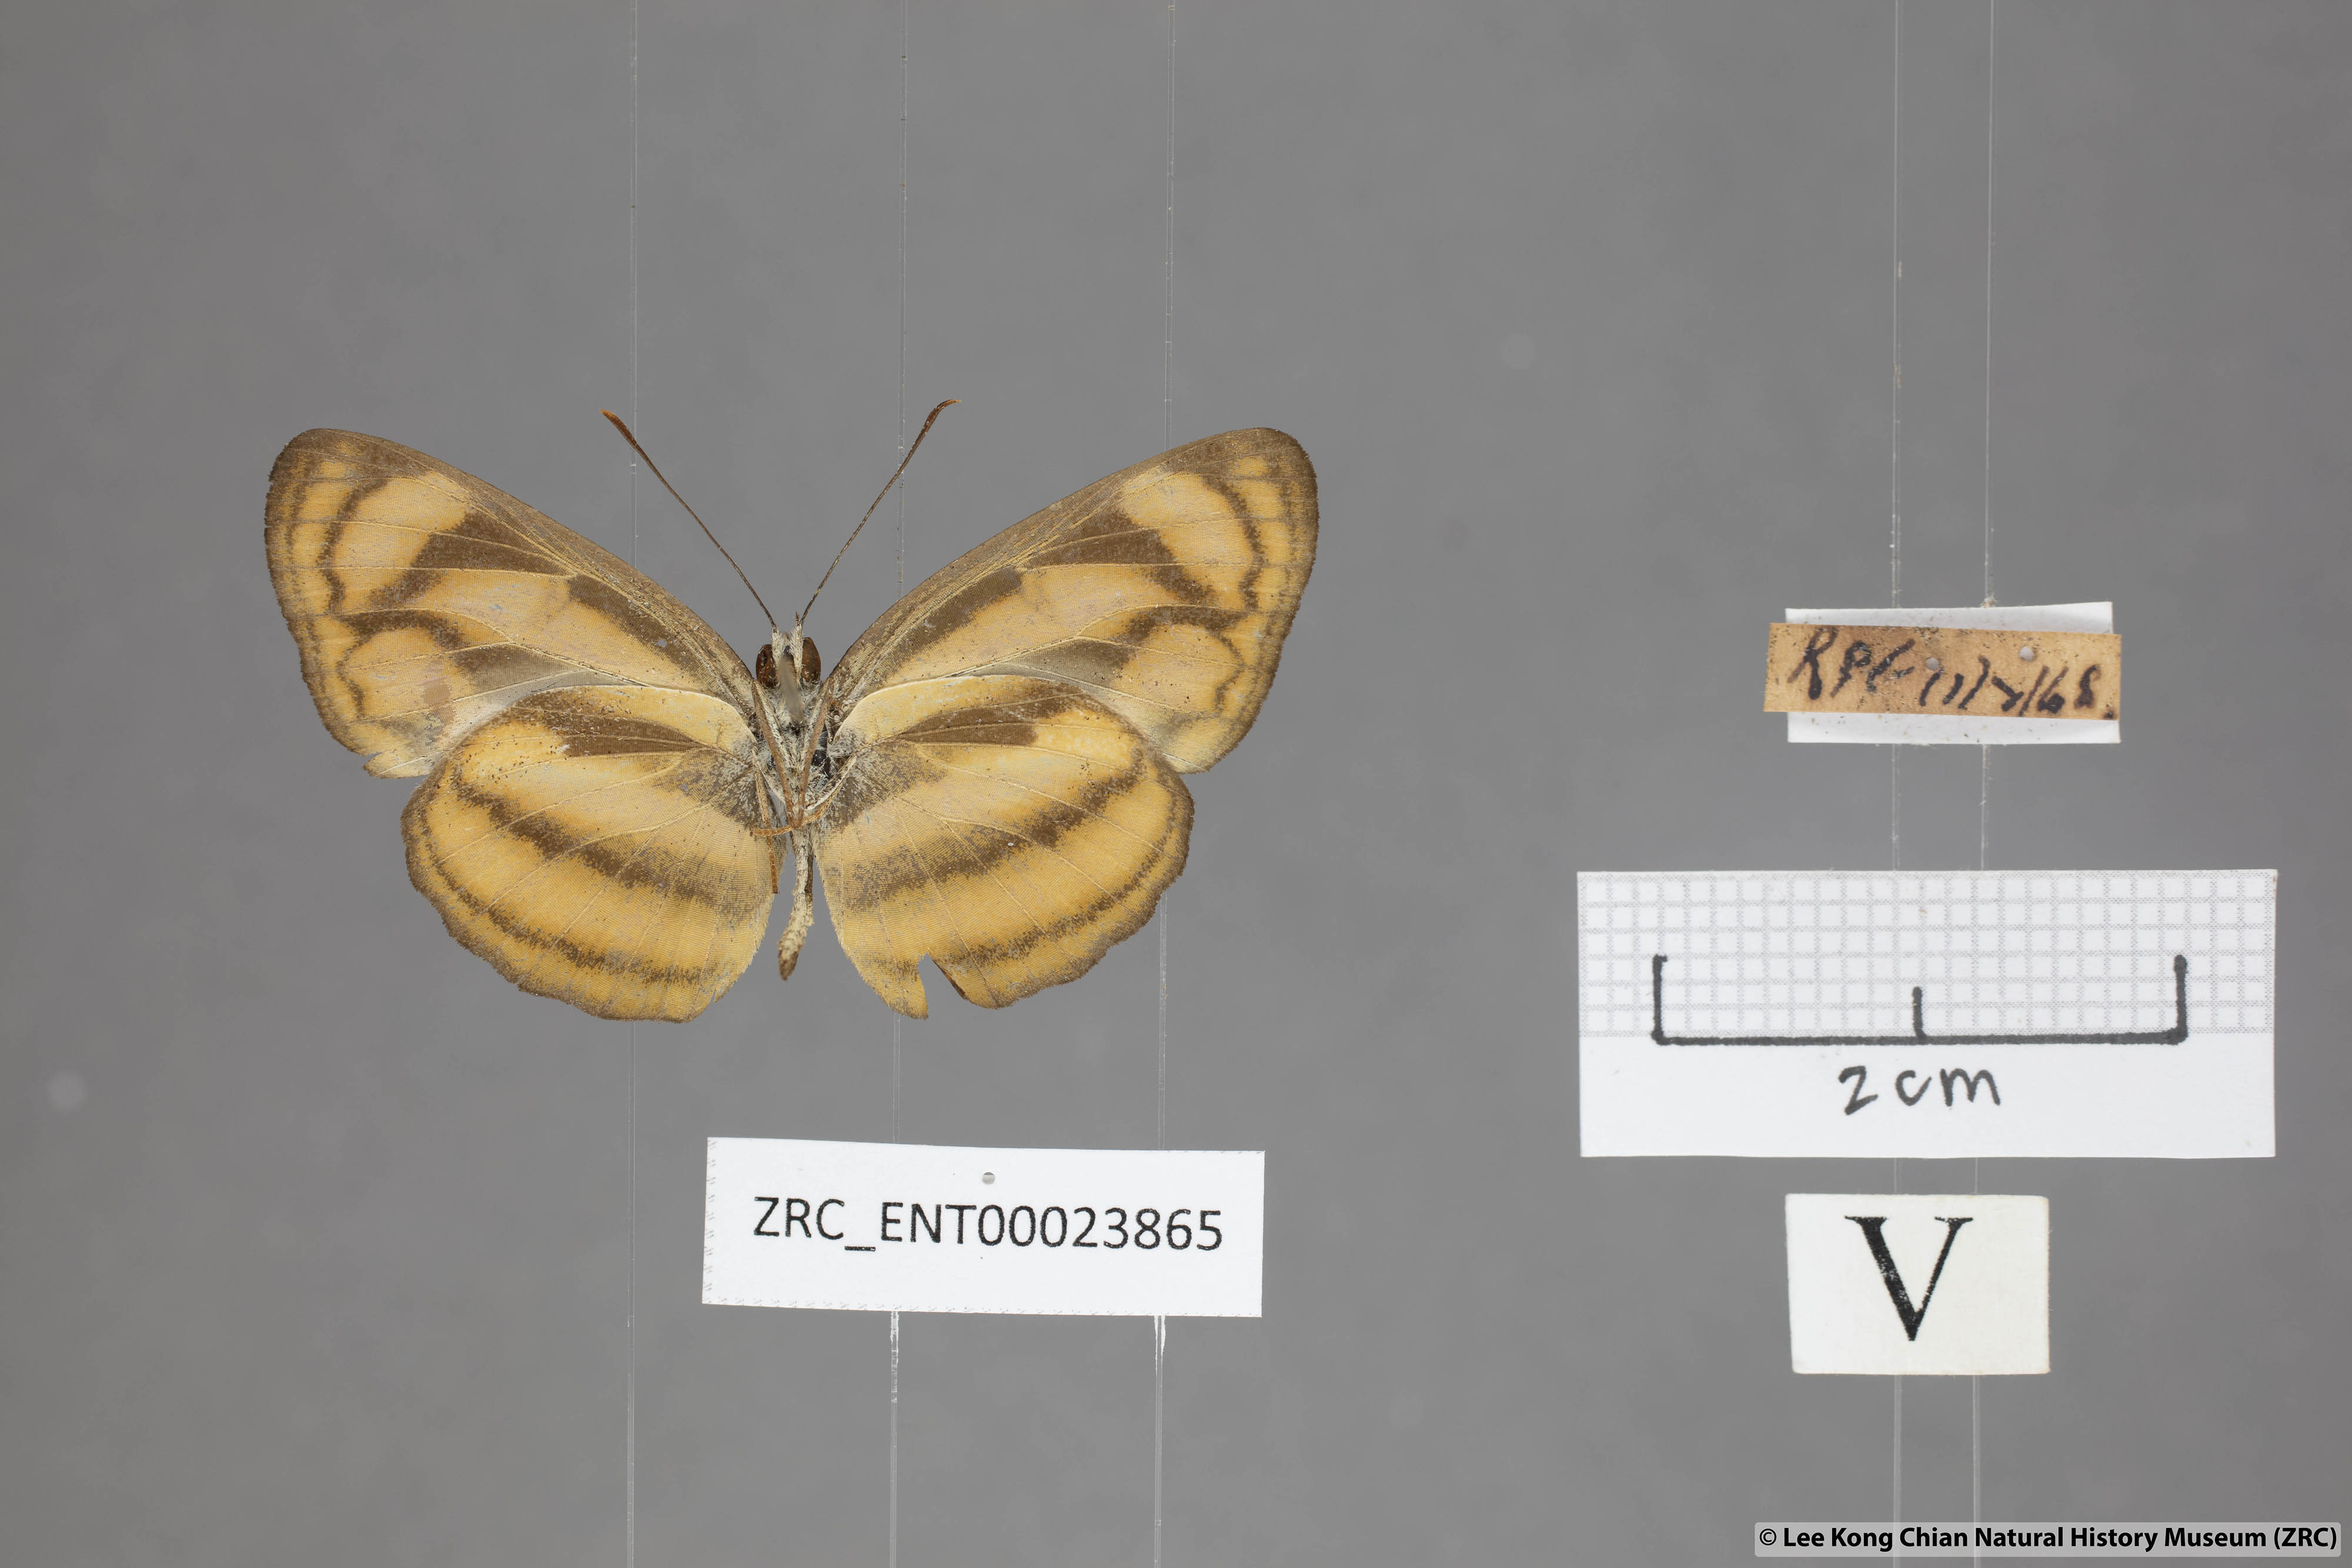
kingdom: Animalia
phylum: Arthropoda
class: Insecta
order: Lepidoptera
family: Nymphalidae
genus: Lasippa
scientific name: Lasippa tiga
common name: Malayan lascar
